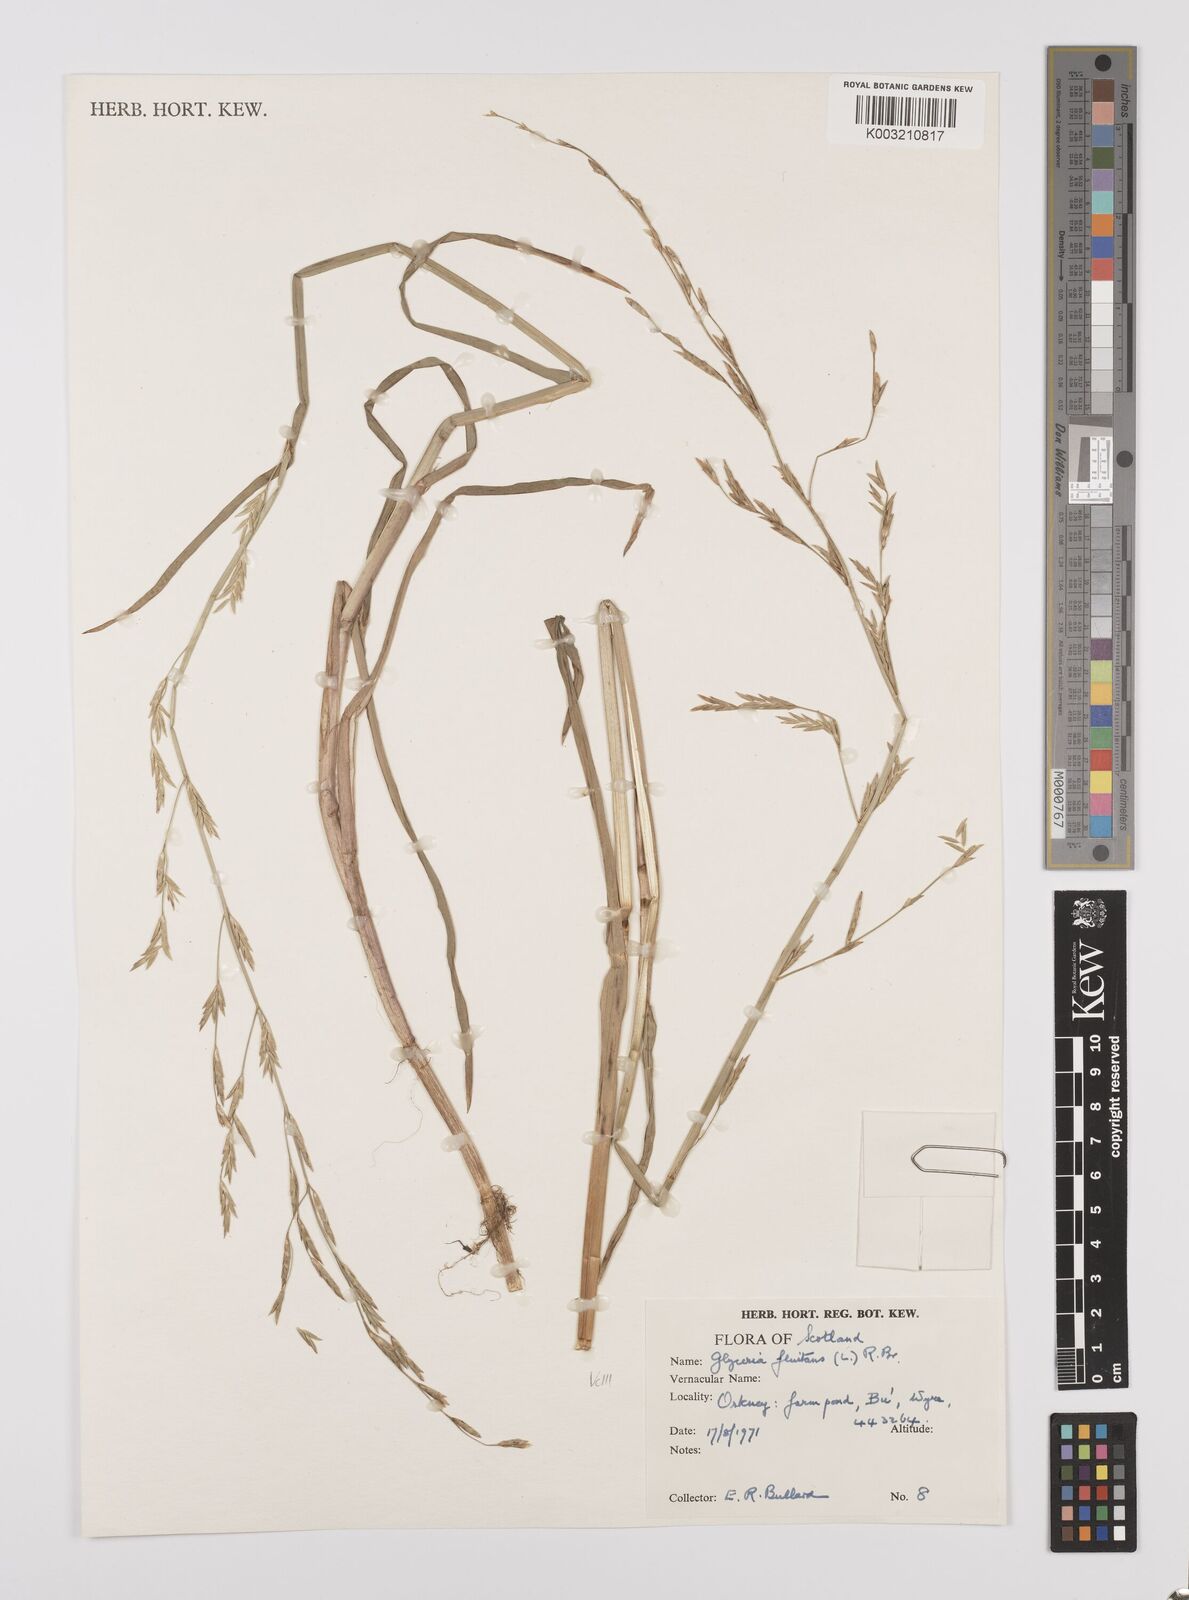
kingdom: Plantae
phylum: Tracheophyta
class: Liliopsida
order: Poales
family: Poaceae
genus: Glyceria
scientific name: Glyceria fluitans
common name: Floating sweet-grass
